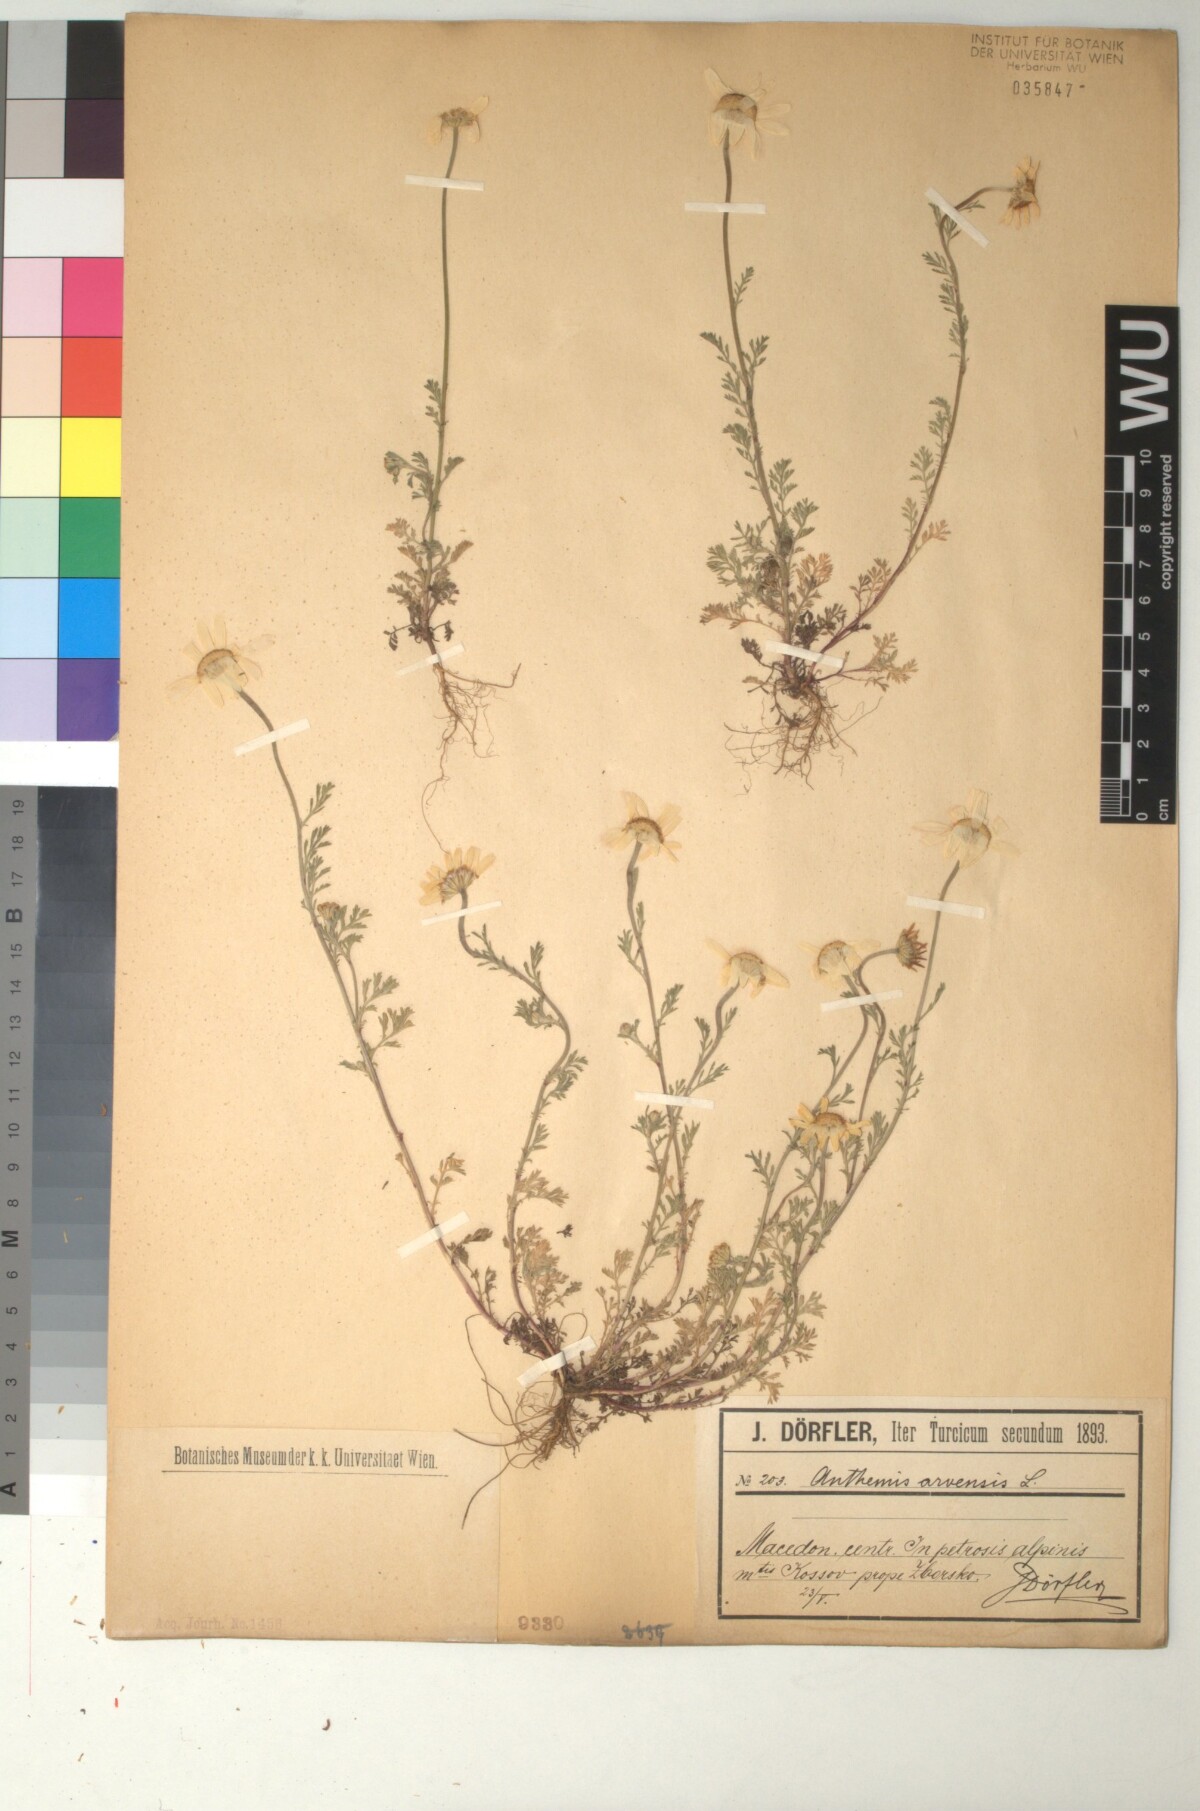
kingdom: Plantae
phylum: Tracheophyta
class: Magnoliopsida
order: Asterales
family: Asteraceae
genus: Anthemis
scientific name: Anthemis arvensis
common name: Corn chamomile
